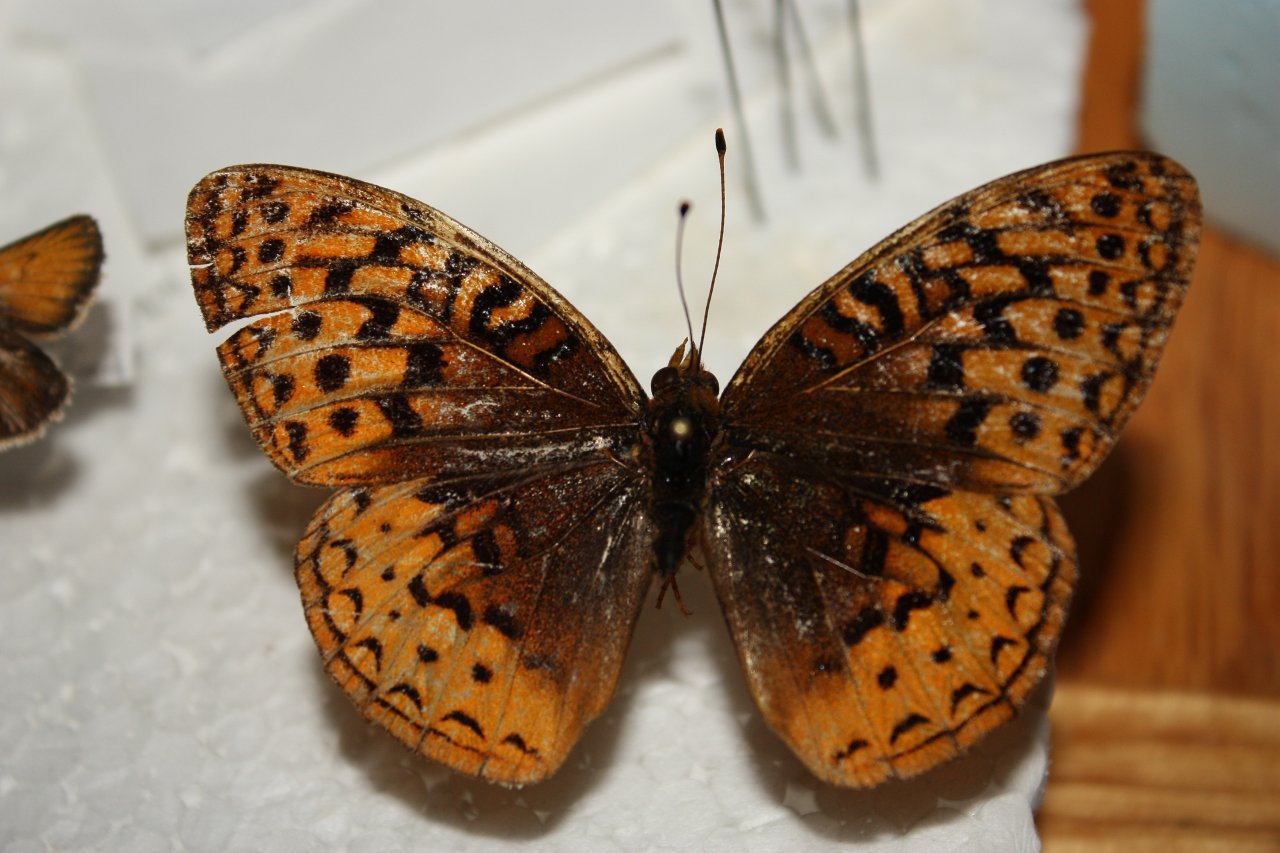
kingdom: Animalia
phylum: Arthropoda
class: Insecta
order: Lepidoptera
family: Nymphalidae
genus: Speyeria
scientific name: Speyeria cybele
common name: Great Spangled Fritillary
